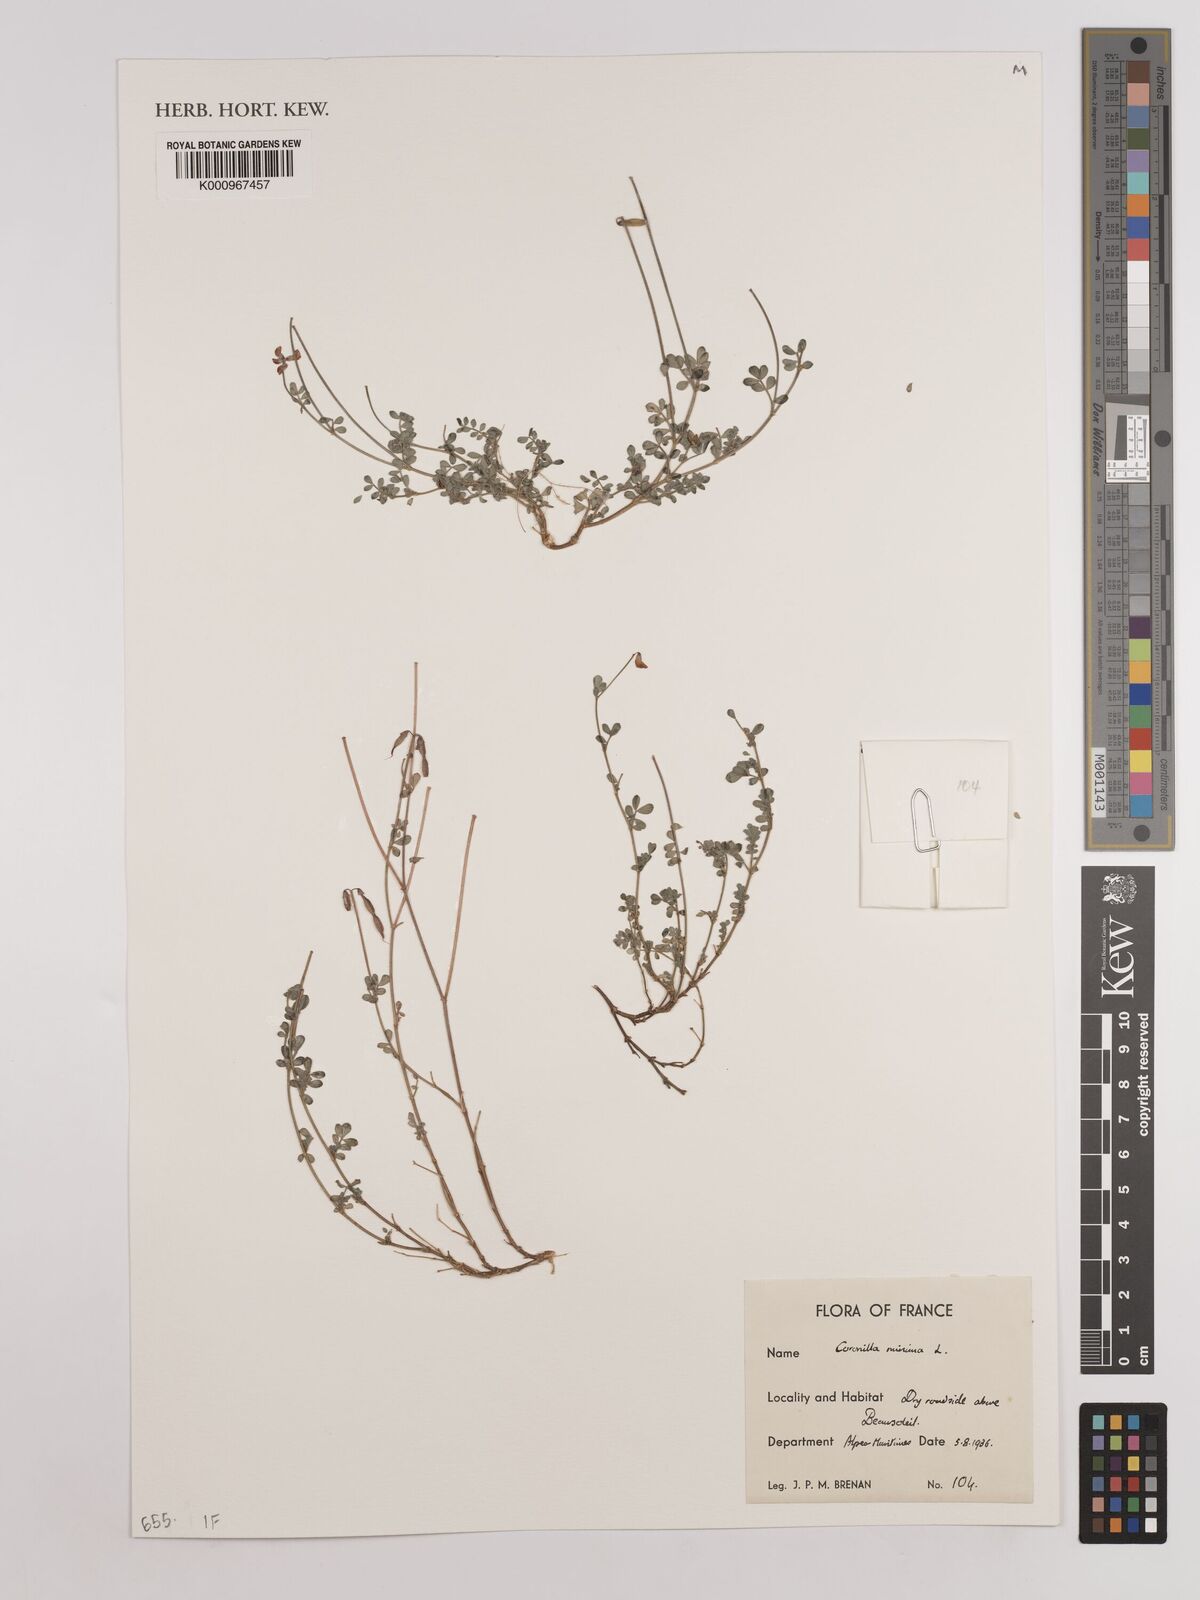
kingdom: Plantae
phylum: Tracheophyta
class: Magnoliopsida
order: Fabales
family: Fabaceae
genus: Coronilla
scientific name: Coronilla minima
